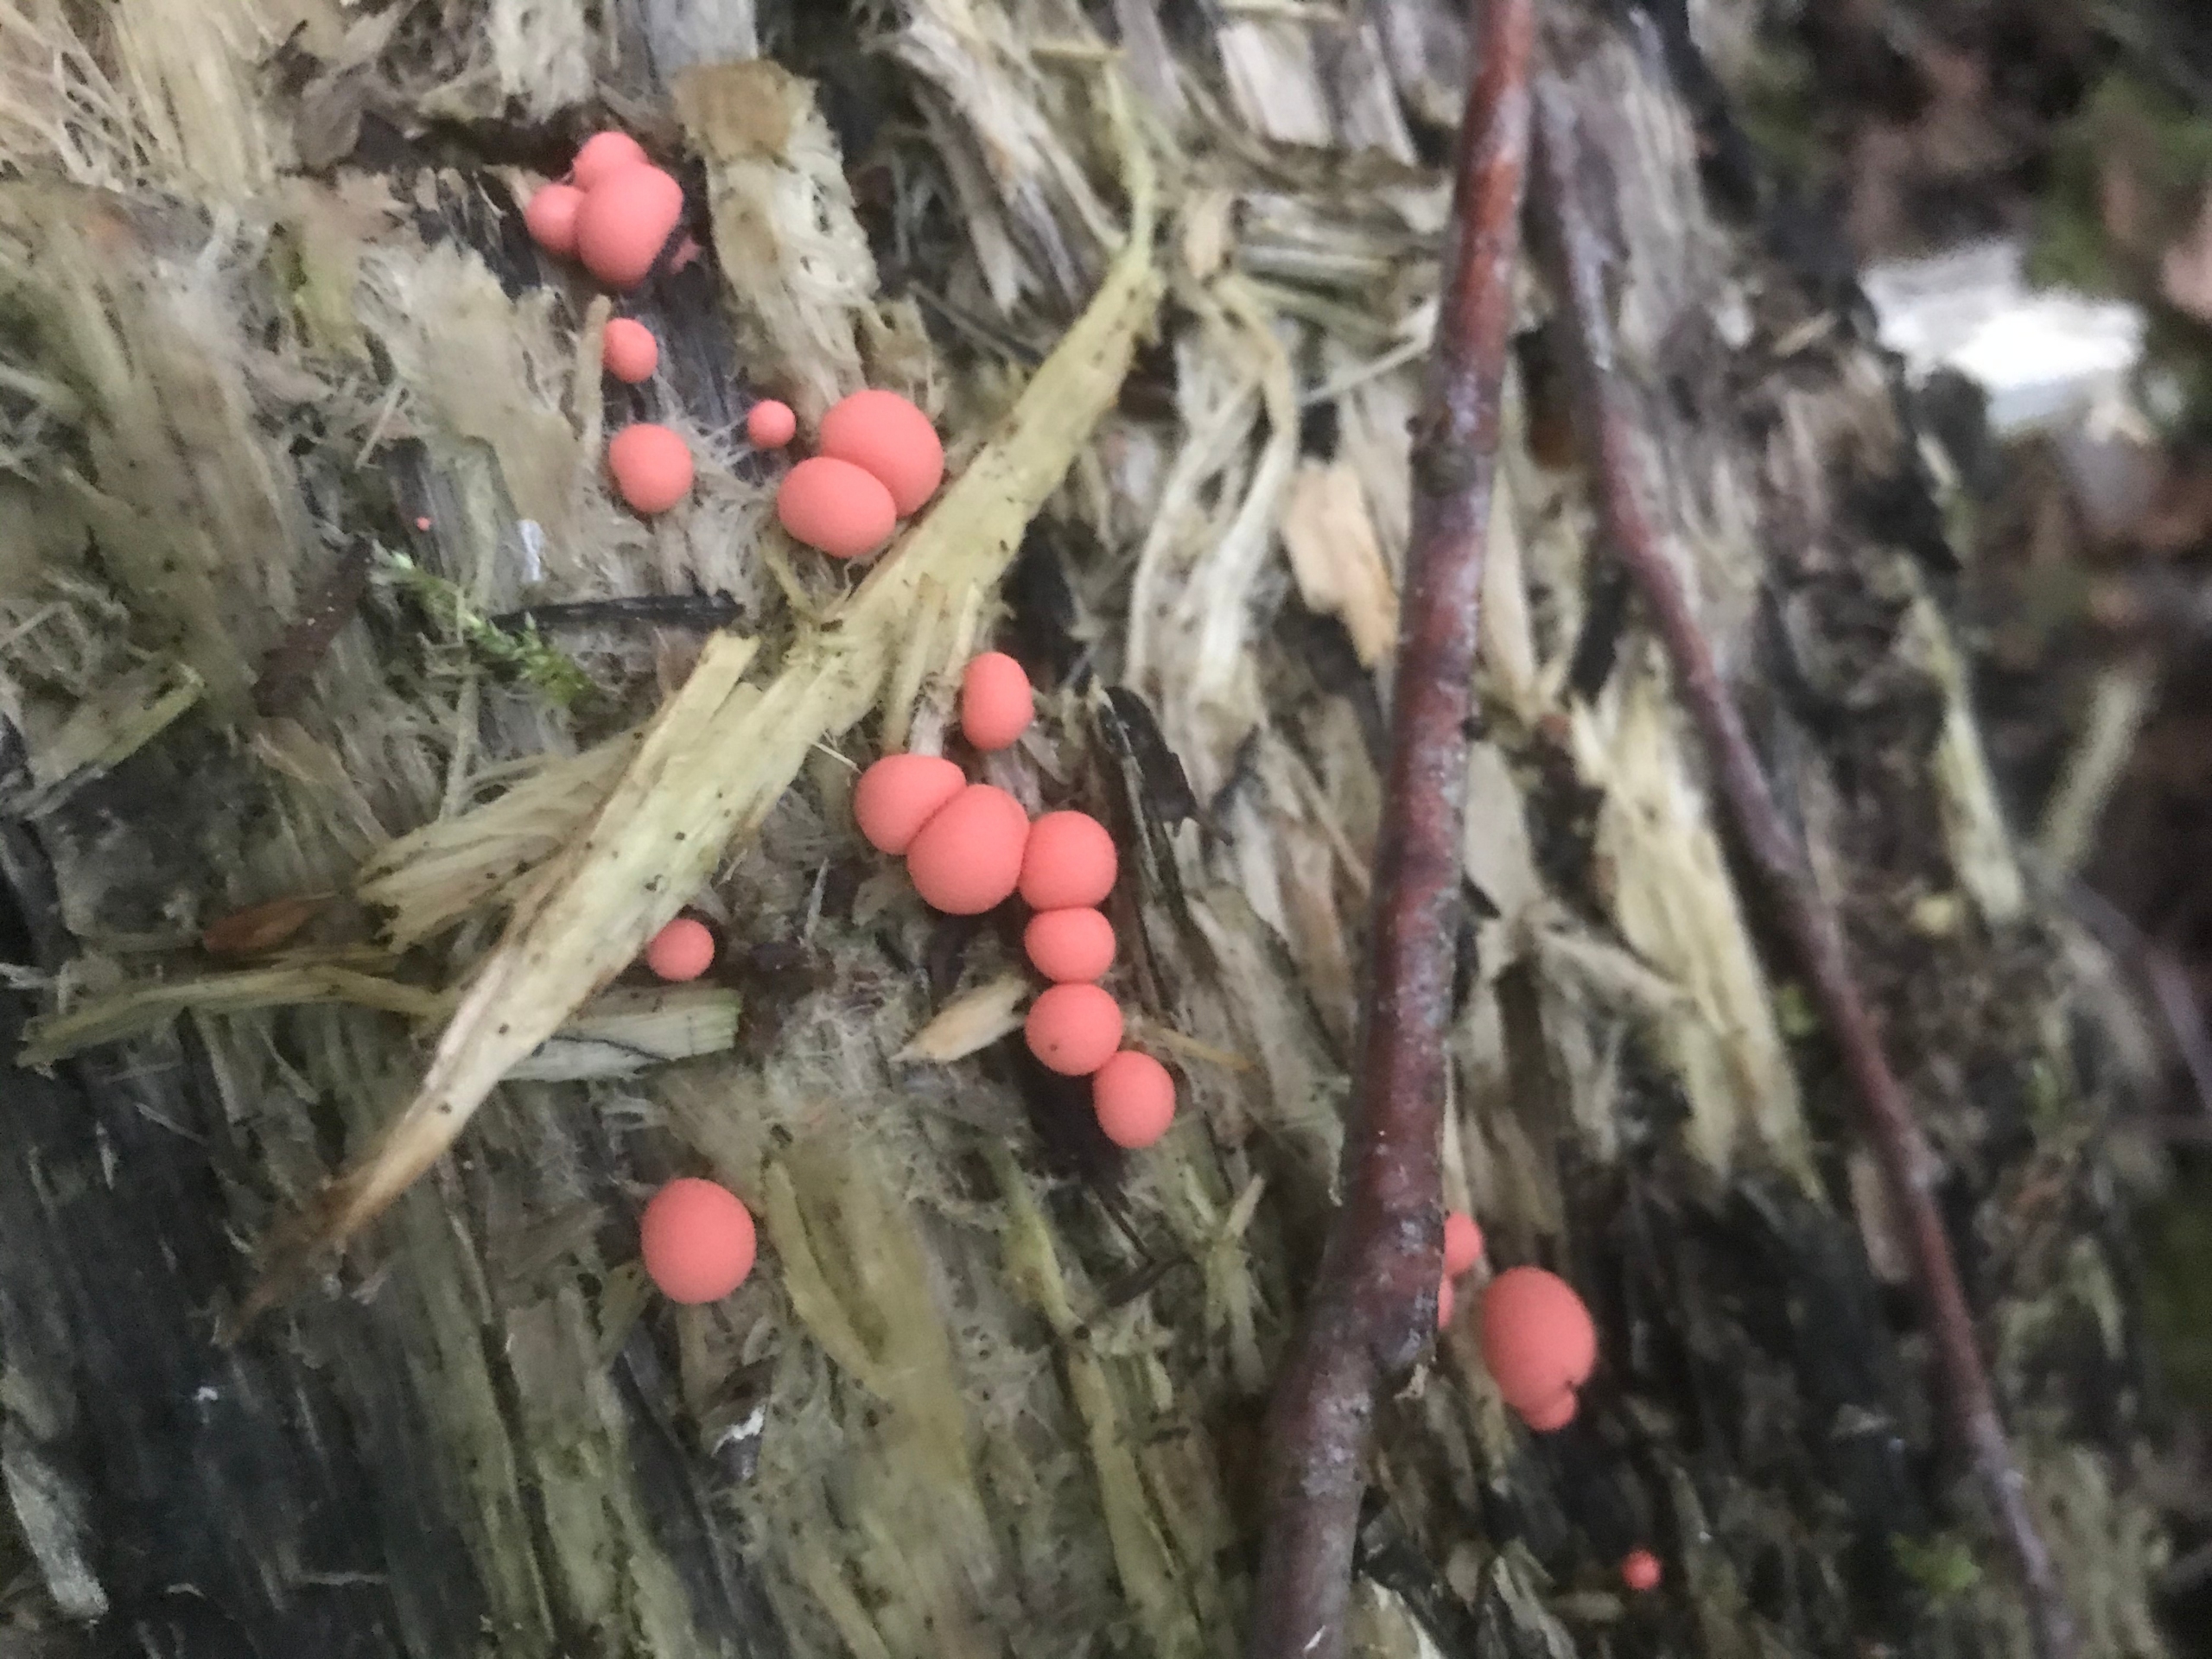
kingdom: Protozoa
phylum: Mycetozoa
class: Myxomycetes
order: Cribrariales
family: Tubiferaceae
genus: Lycogala
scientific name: Lycogala epidendrum
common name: Almindelig rødært
